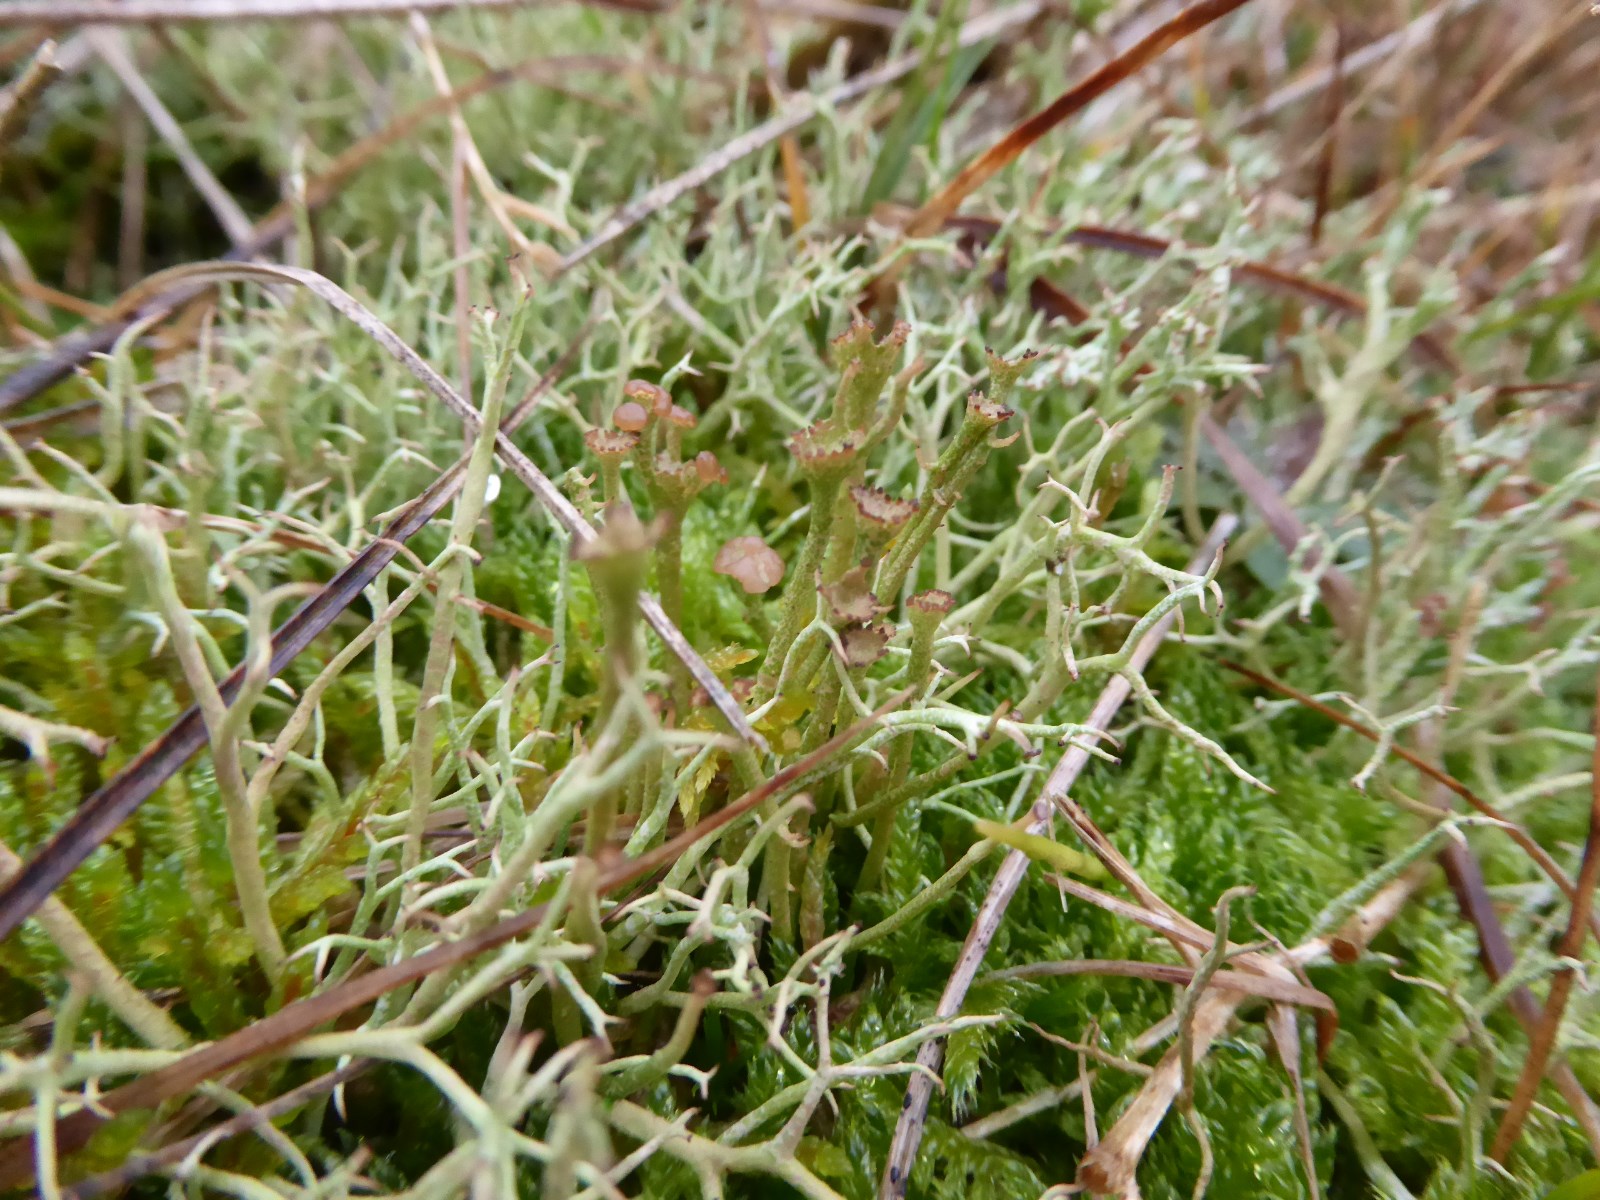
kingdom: Fungi
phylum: Ascomycota
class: Lecanoromycetes
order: Lecanorales
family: Cladoniaceae
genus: Cladonia
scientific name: Cladonia gracilis
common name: slank bægerlav
